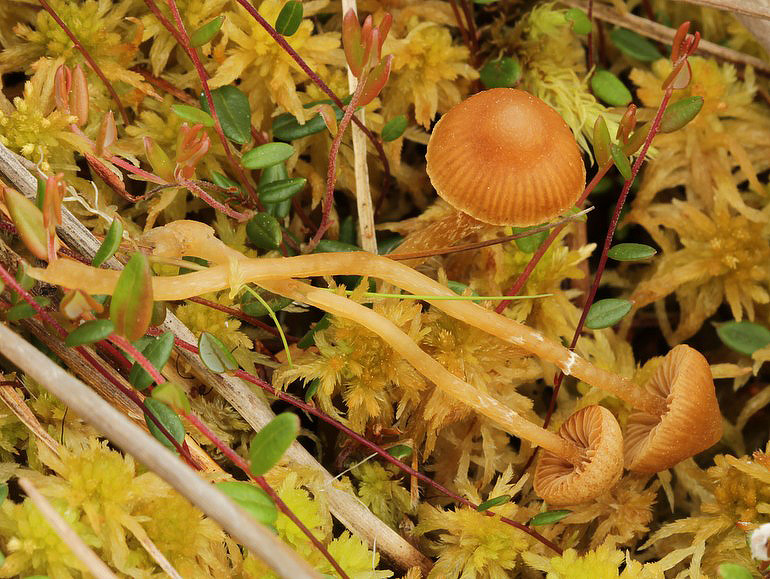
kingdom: Fungi
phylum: Basidiomycota
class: Agaricomycetes
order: Agaricales
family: Hymenogastraceae
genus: Galerina
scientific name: Galerina paludosa
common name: mose-hjelmhat
